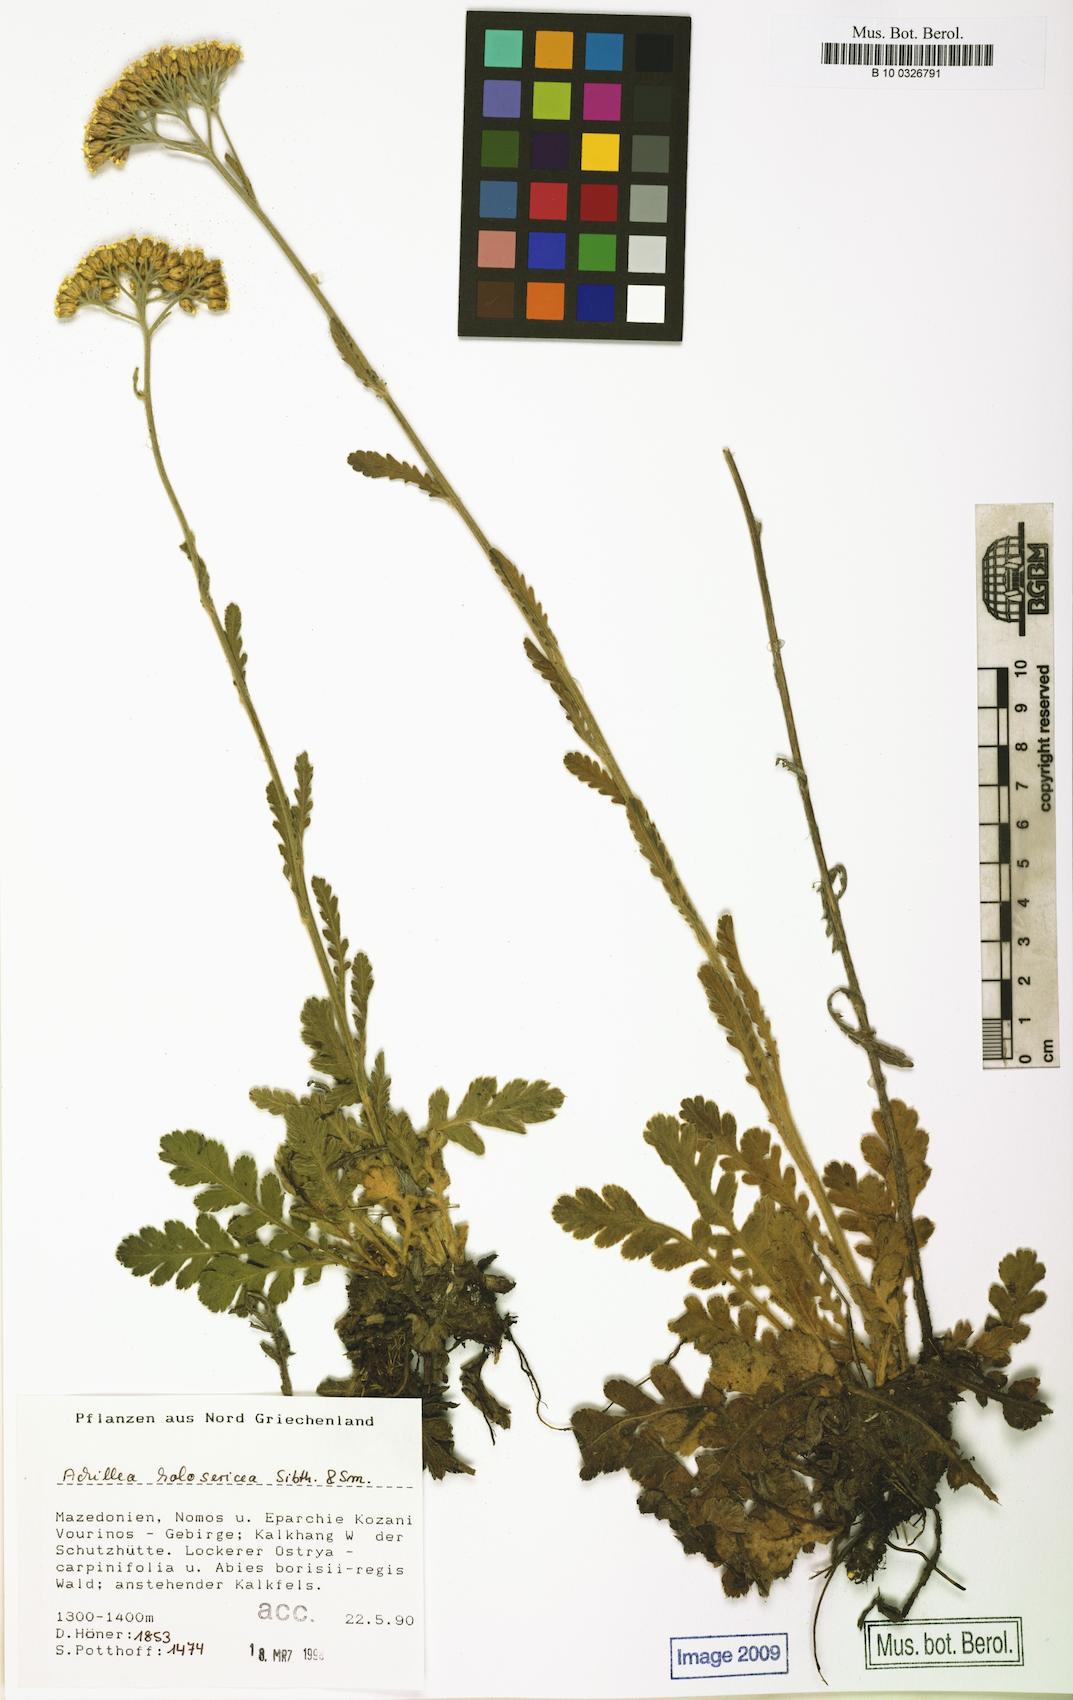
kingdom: Plantae
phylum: Tracheophyta
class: Magnoliopsida
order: Asterales
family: Asteraceae
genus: Achillea
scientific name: Achillea holosericea
